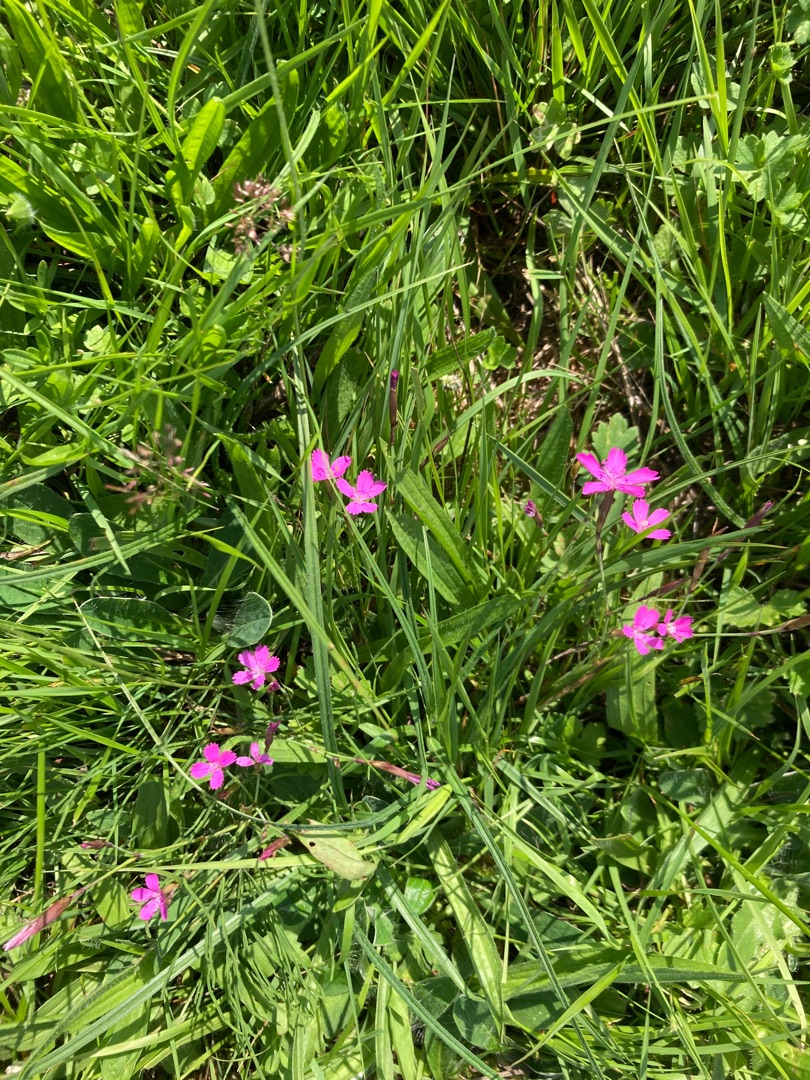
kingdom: Plantae
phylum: Tracheophyta
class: Magnoliopsida
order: Caryophyllales
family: Caryophyllaceae
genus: Dianthus
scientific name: Dianthus deltoides
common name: Bakke-nellike
